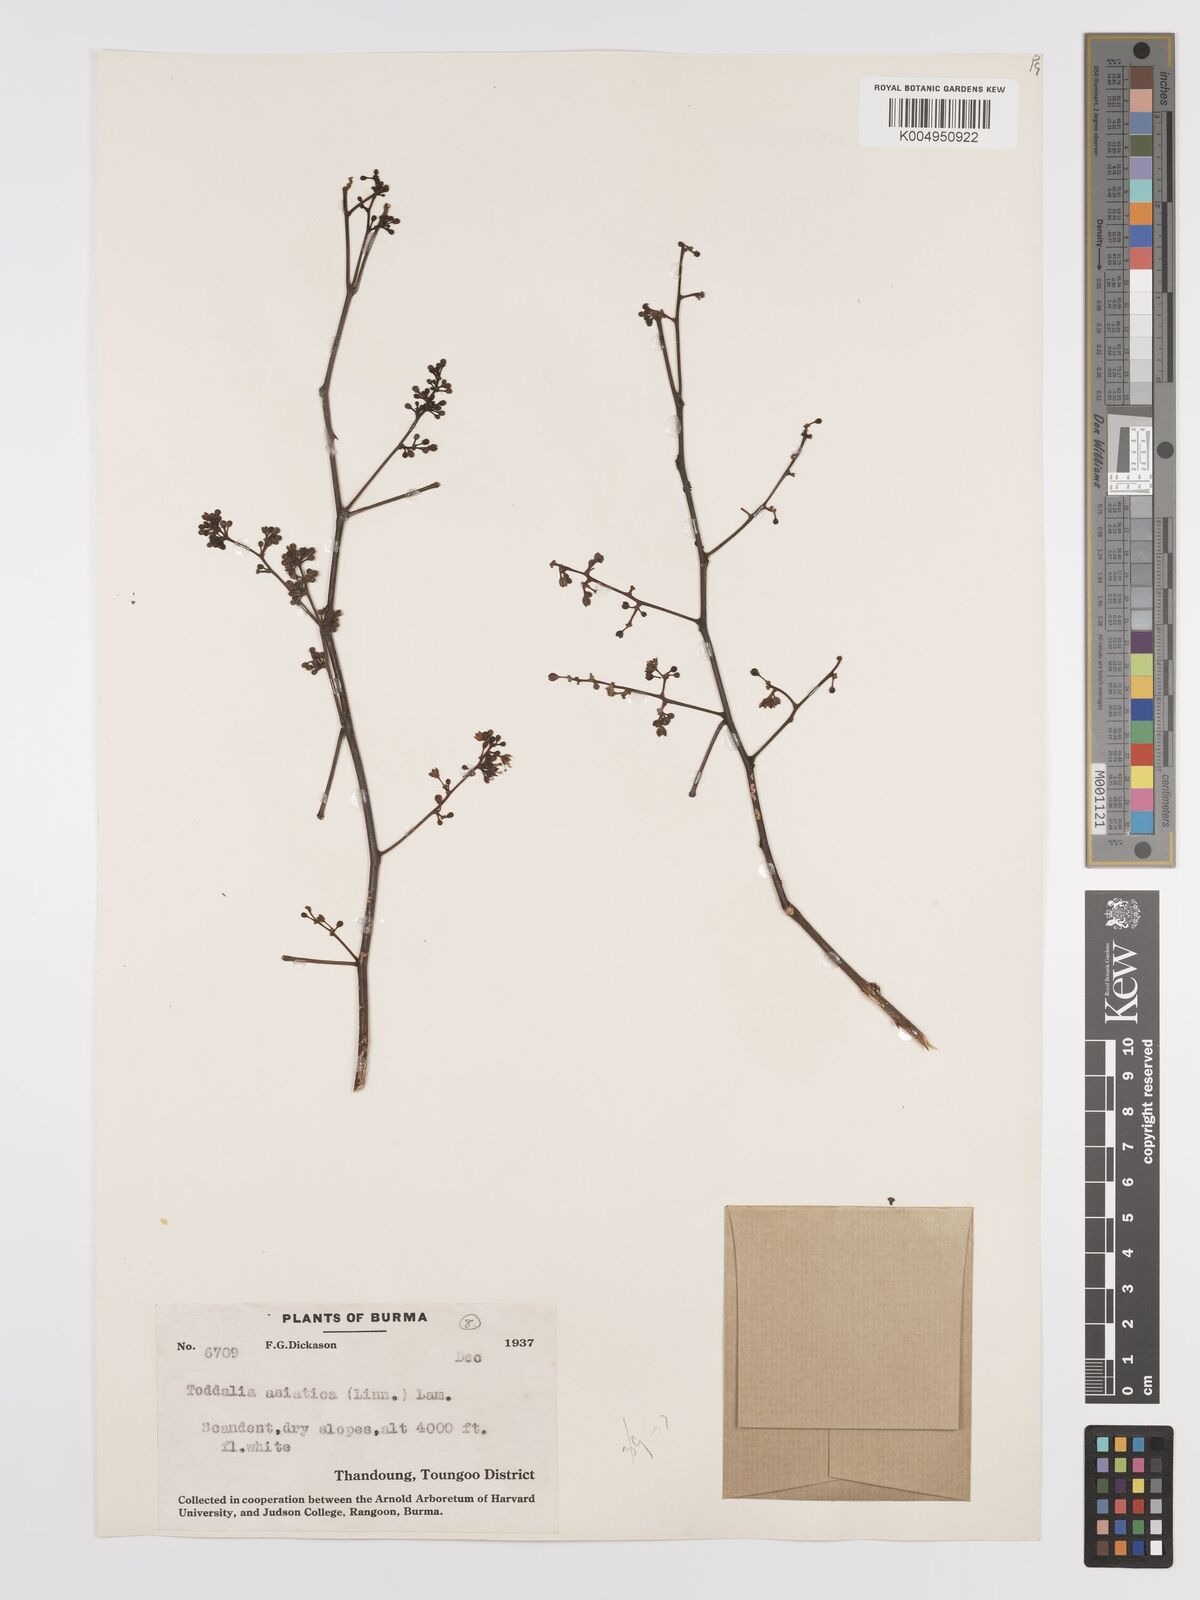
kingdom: Plantae
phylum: Tracheophyta
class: Magnoliopsida
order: Sapindales
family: Rutaceae
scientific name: Rutaceae
